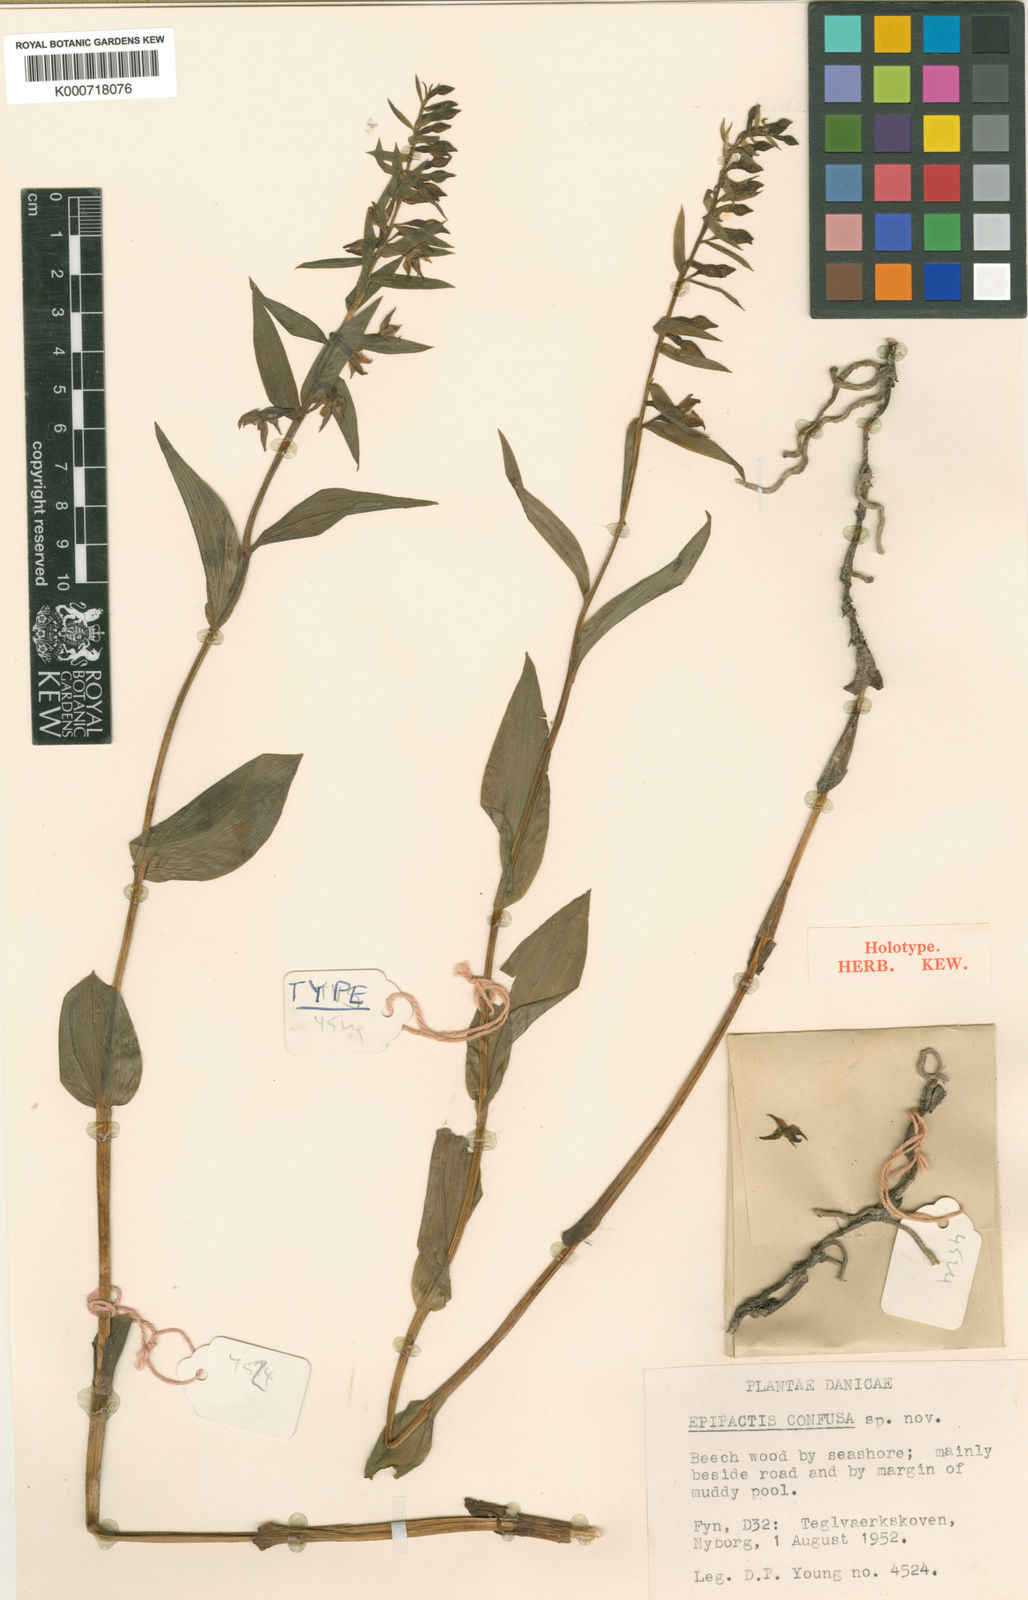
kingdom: Plantae
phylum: Tracheophyta
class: Liliopsida
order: Asparagales
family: Orchidaceae
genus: Epipactis
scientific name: Epipactis phyllanthes
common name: Green-flowered helleborine
